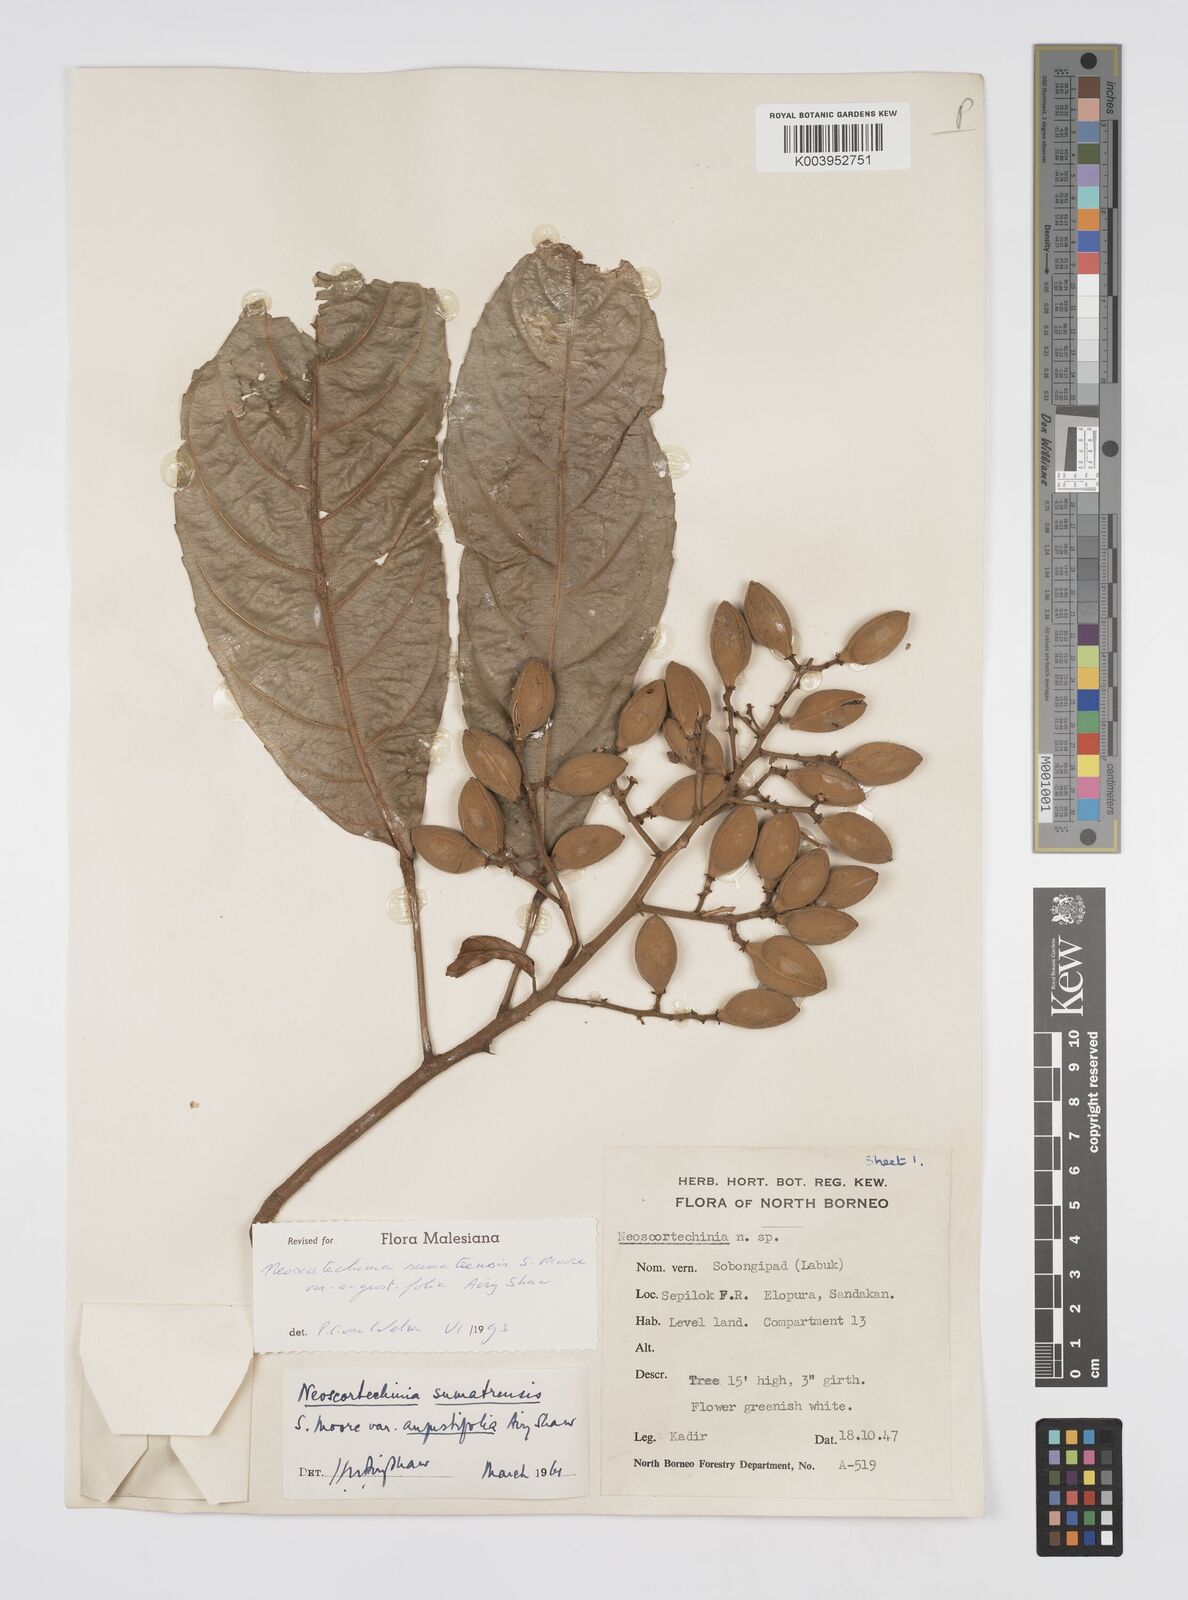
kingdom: Plantae
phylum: Tracheophyta
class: Magnoliopsida
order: Malpighiales
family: Euphorbiaceae
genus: Neoscortechinia
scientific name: Neoscortechinia angustifolia
